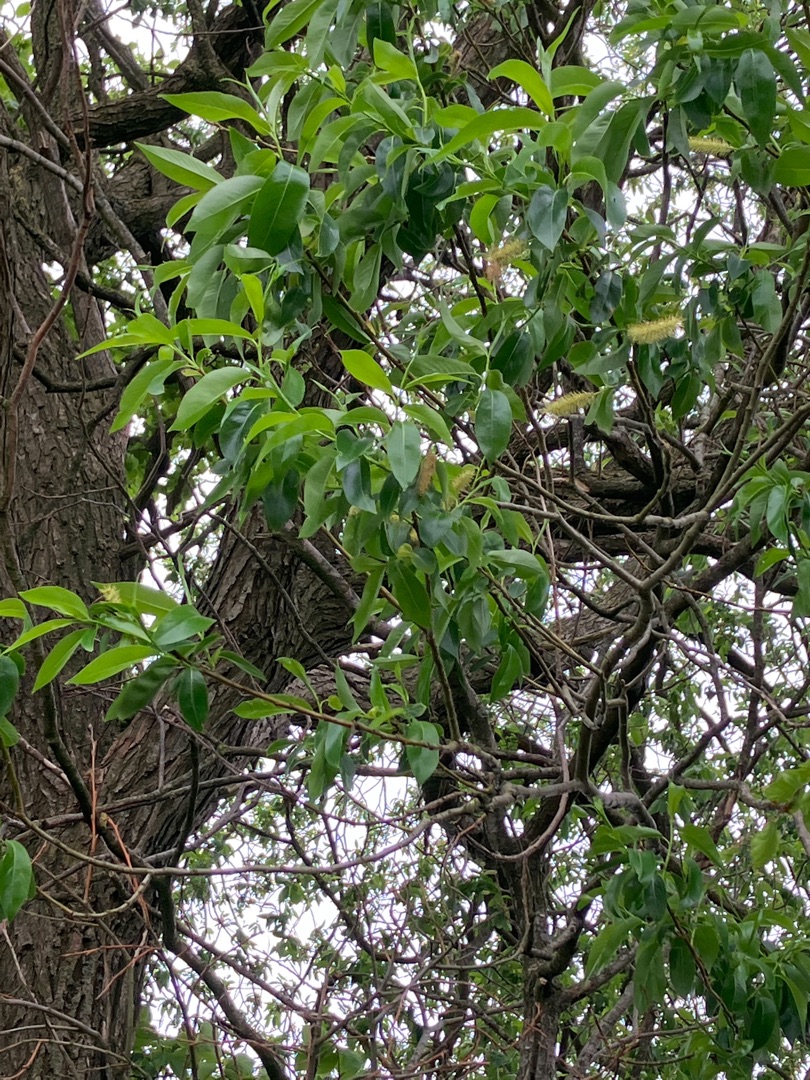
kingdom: Plantae
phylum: Tracheophyta
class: Magnoliopsida
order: Malpighiales
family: Salicaceae
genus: Salix
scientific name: Salix pentandra
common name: Femhannet pil
